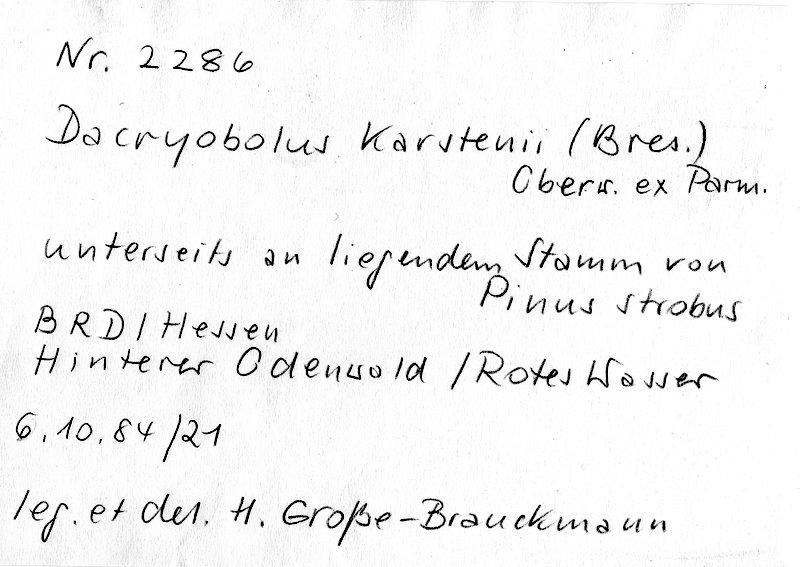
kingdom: Fungi
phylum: Basidiomycota
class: Agaricomycetes
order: Polyporales
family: Dacryobolaceae
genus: Dacryobolus
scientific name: Dacryobolus karstenii
